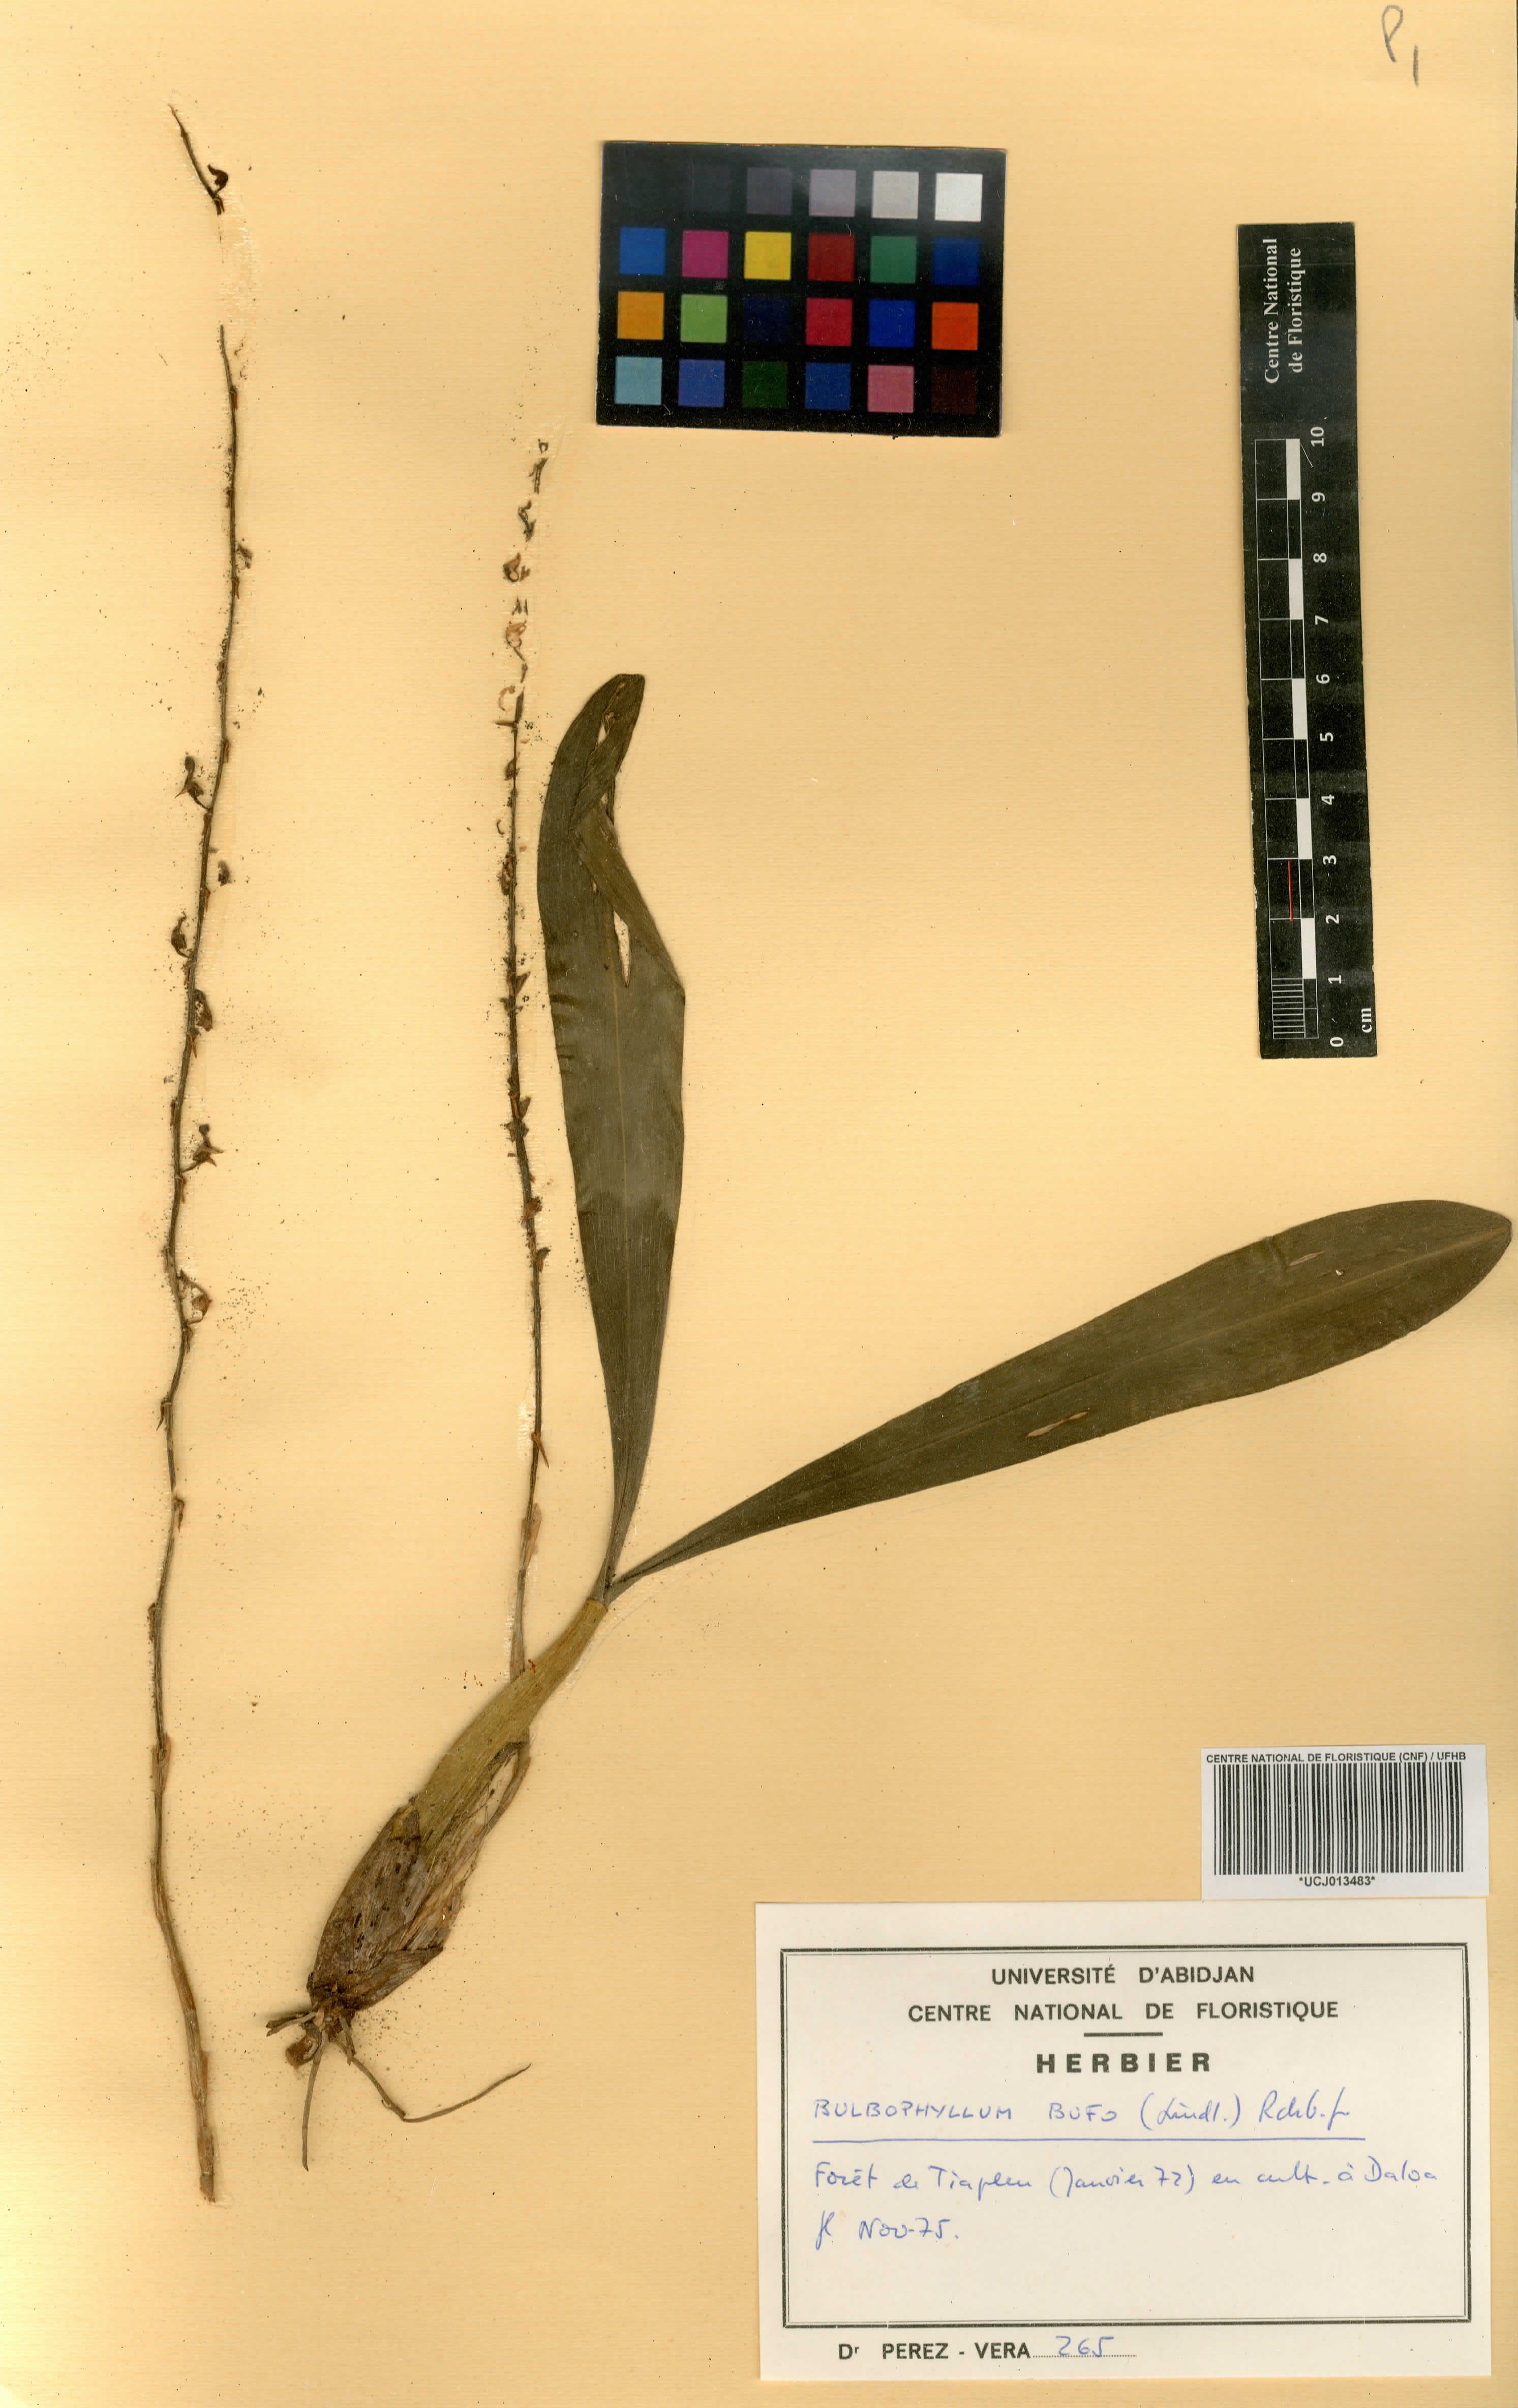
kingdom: Plantae
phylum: Tracheophyta
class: Liliopsida
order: Asparagales
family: Orchidaceae
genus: Bulbophyllum
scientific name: Bulbophyllum falcatum
